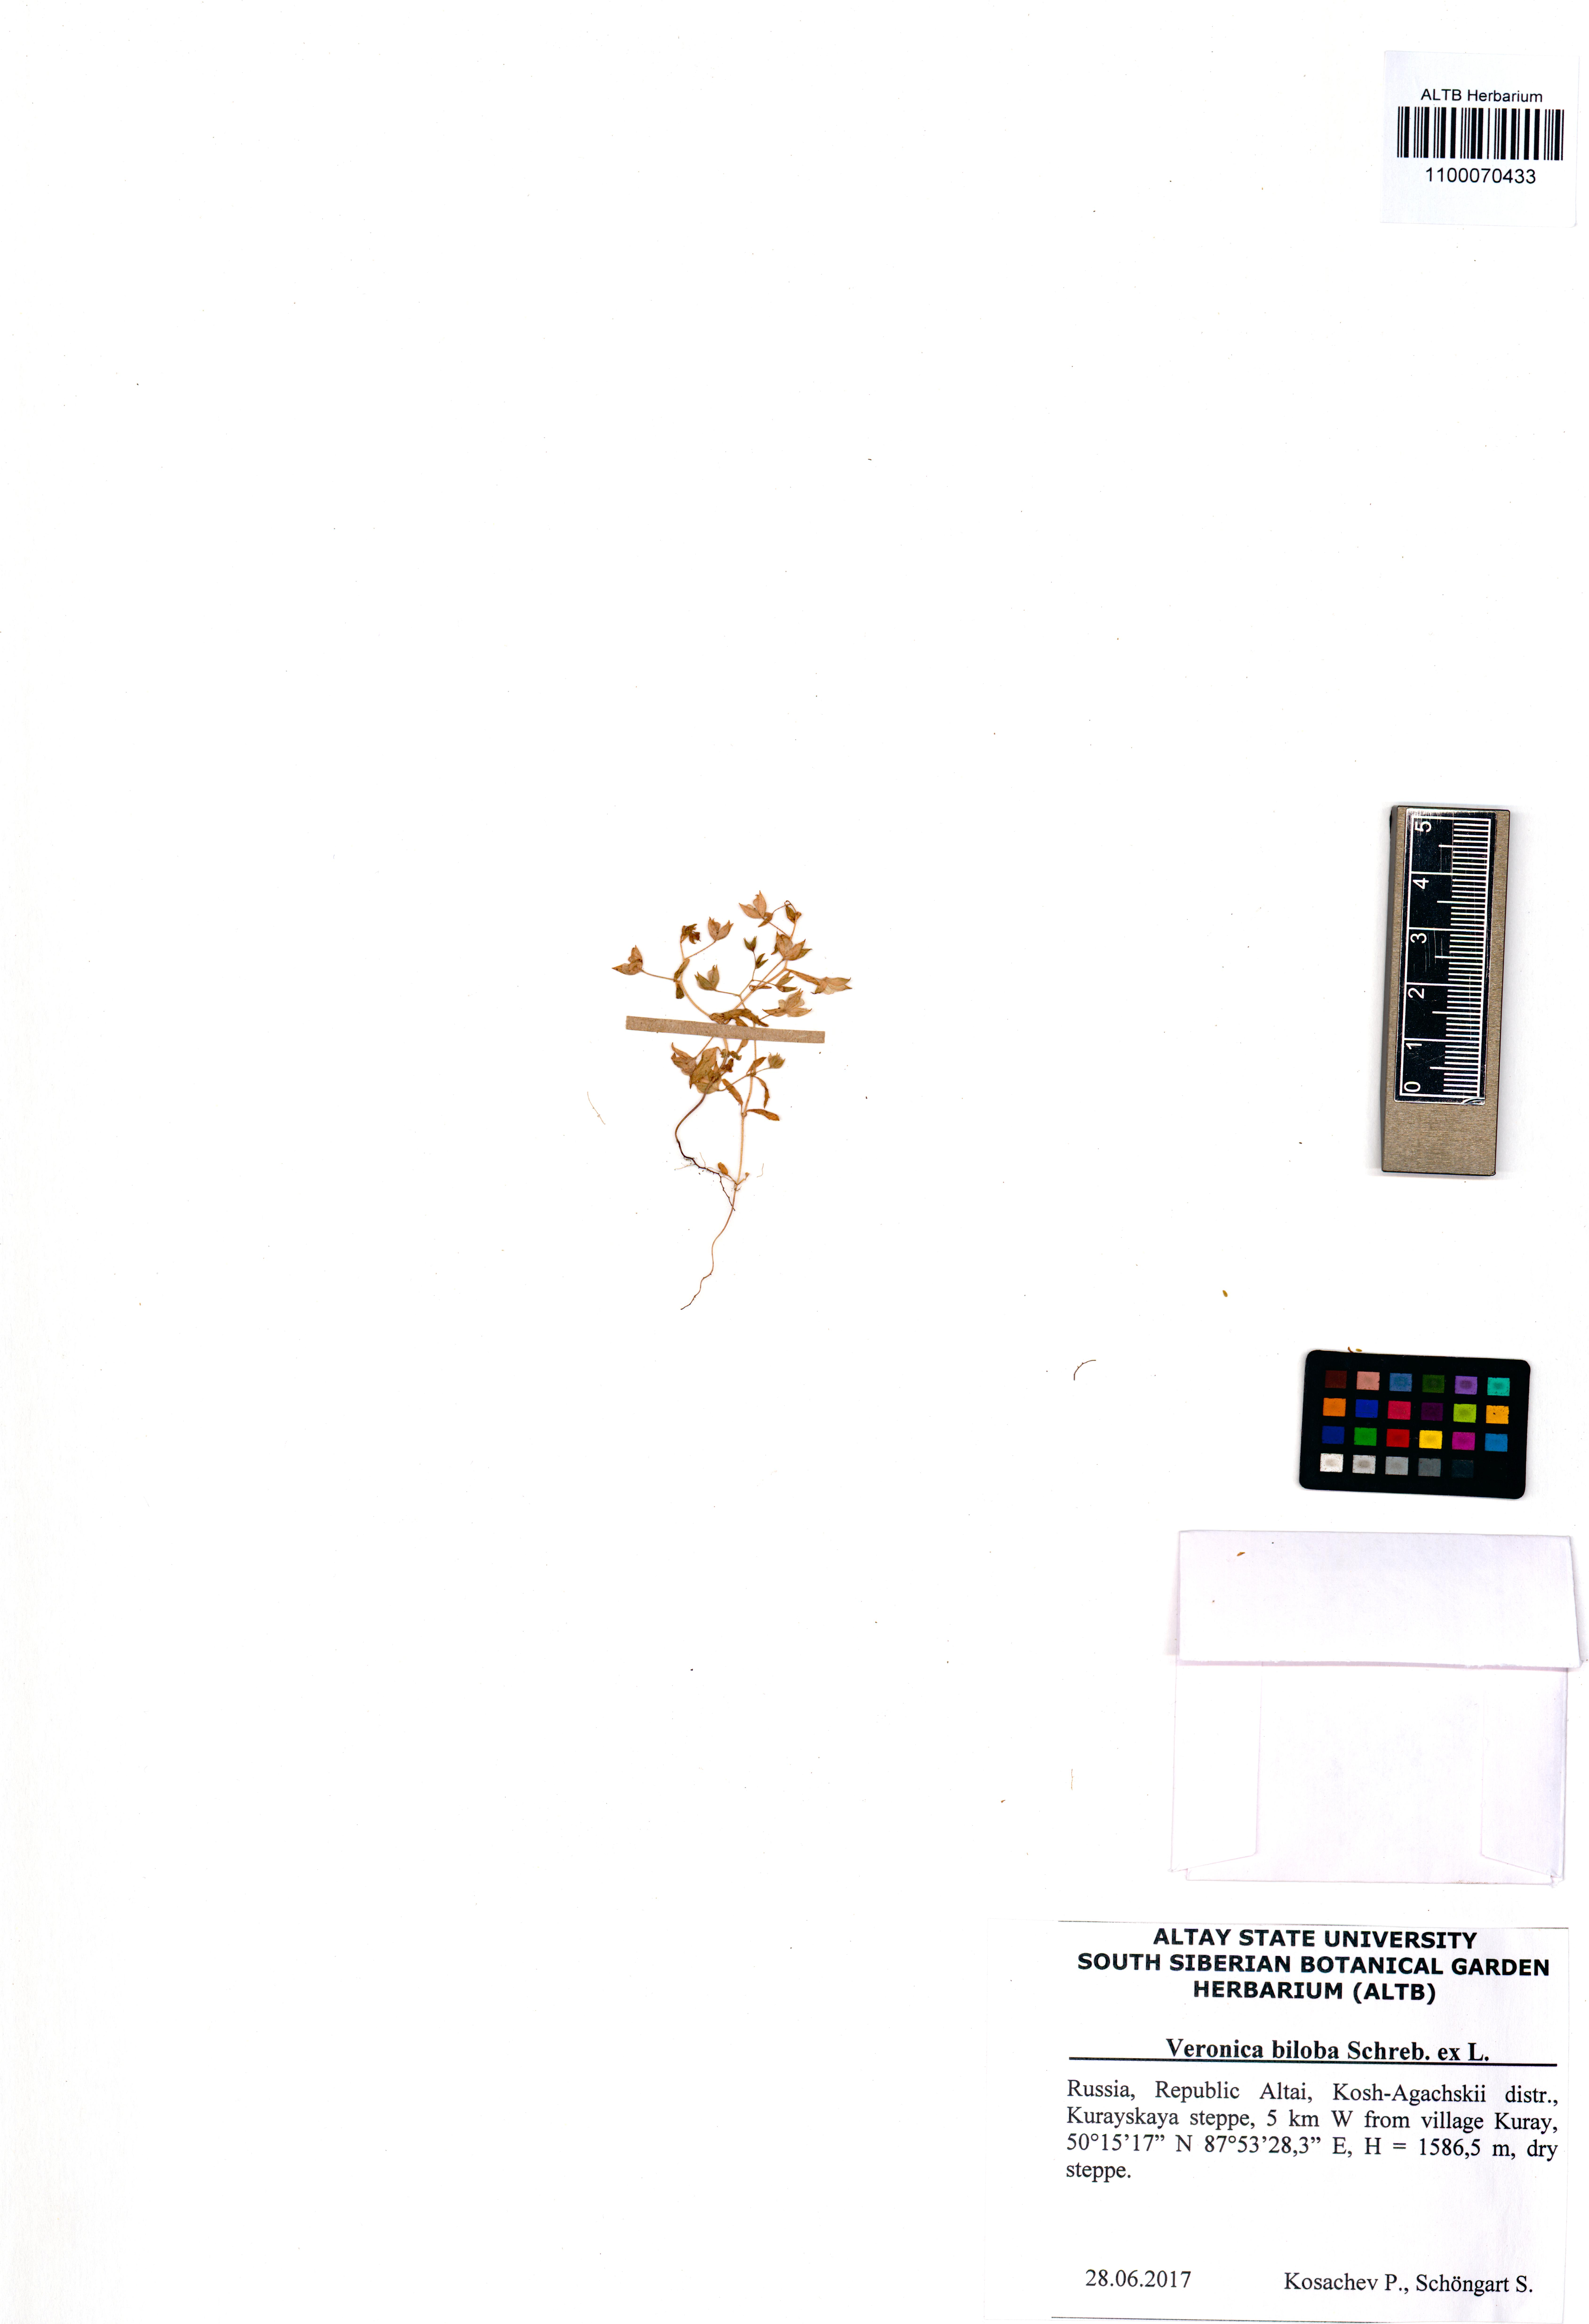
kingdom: Plantae
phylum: Tracheophyta
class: Magnoliopsida
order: Lamiales
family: Plantaginaceae
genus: Veronica
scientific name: Veronica biloba
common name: Twolobe speedwell
